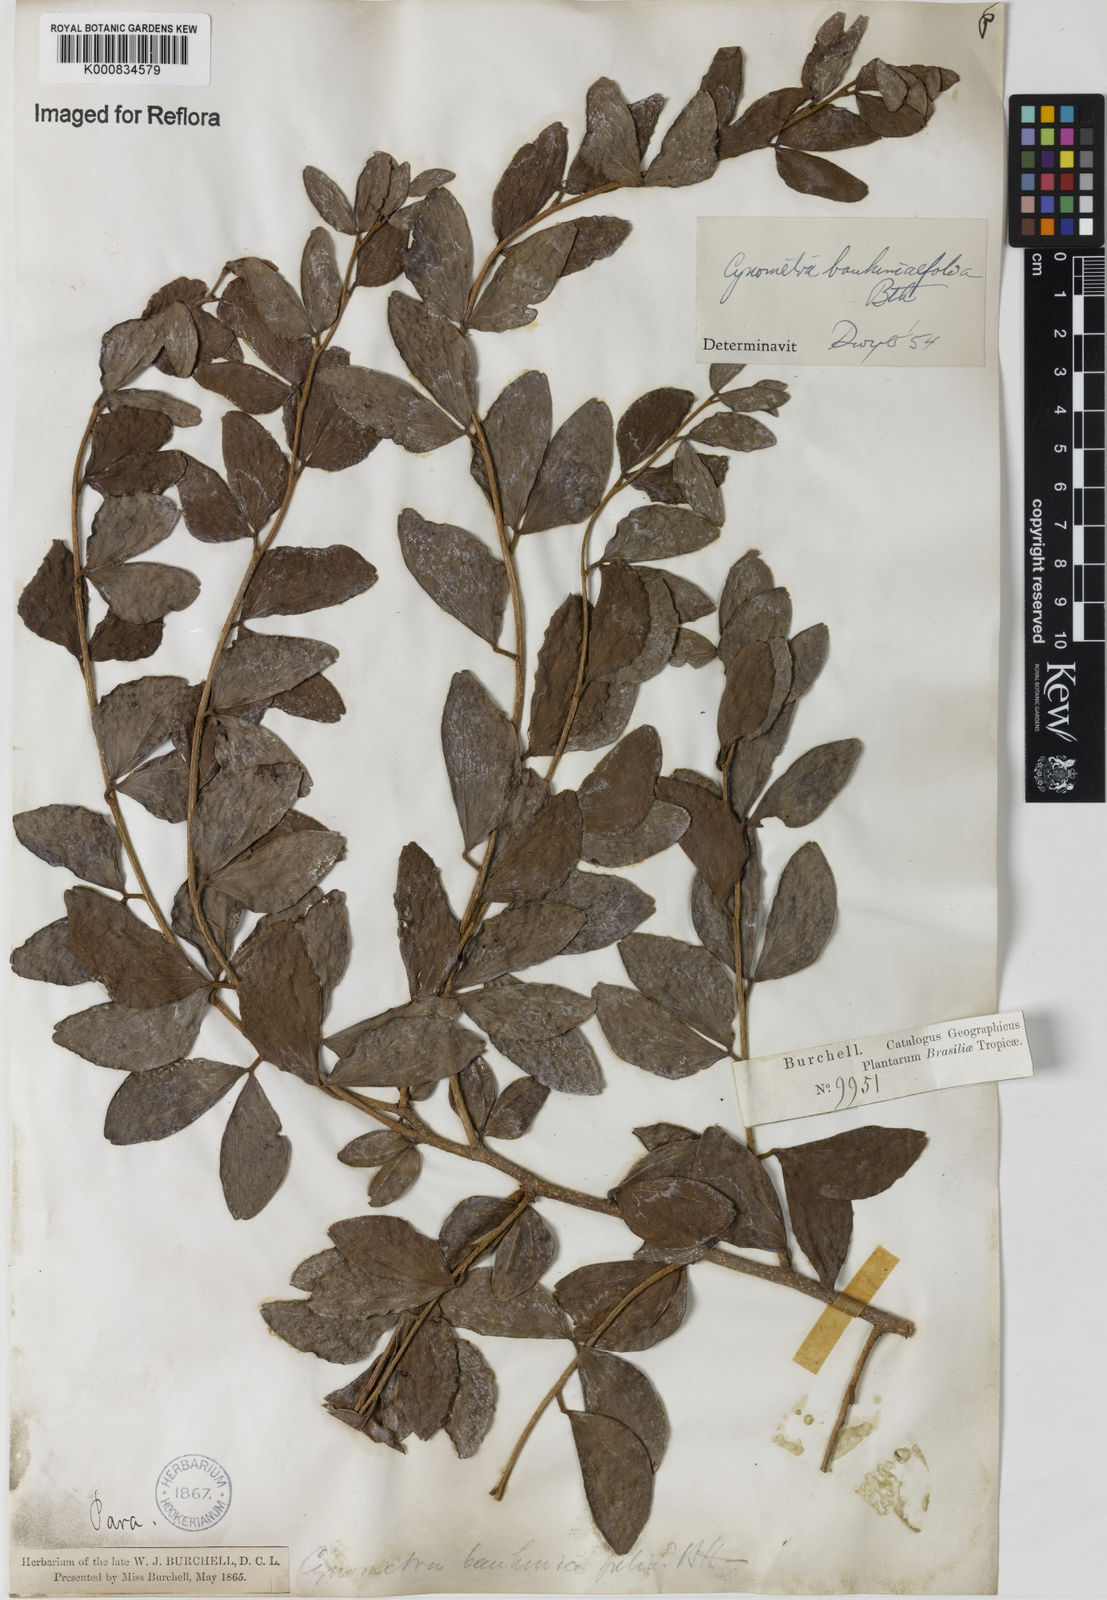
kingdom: Plantae
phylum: Tracheophyta
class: Magnoliopsida
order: Fabales
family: Fabaceae
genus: Cynometra
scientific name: Cynometra bauhiniifolia
